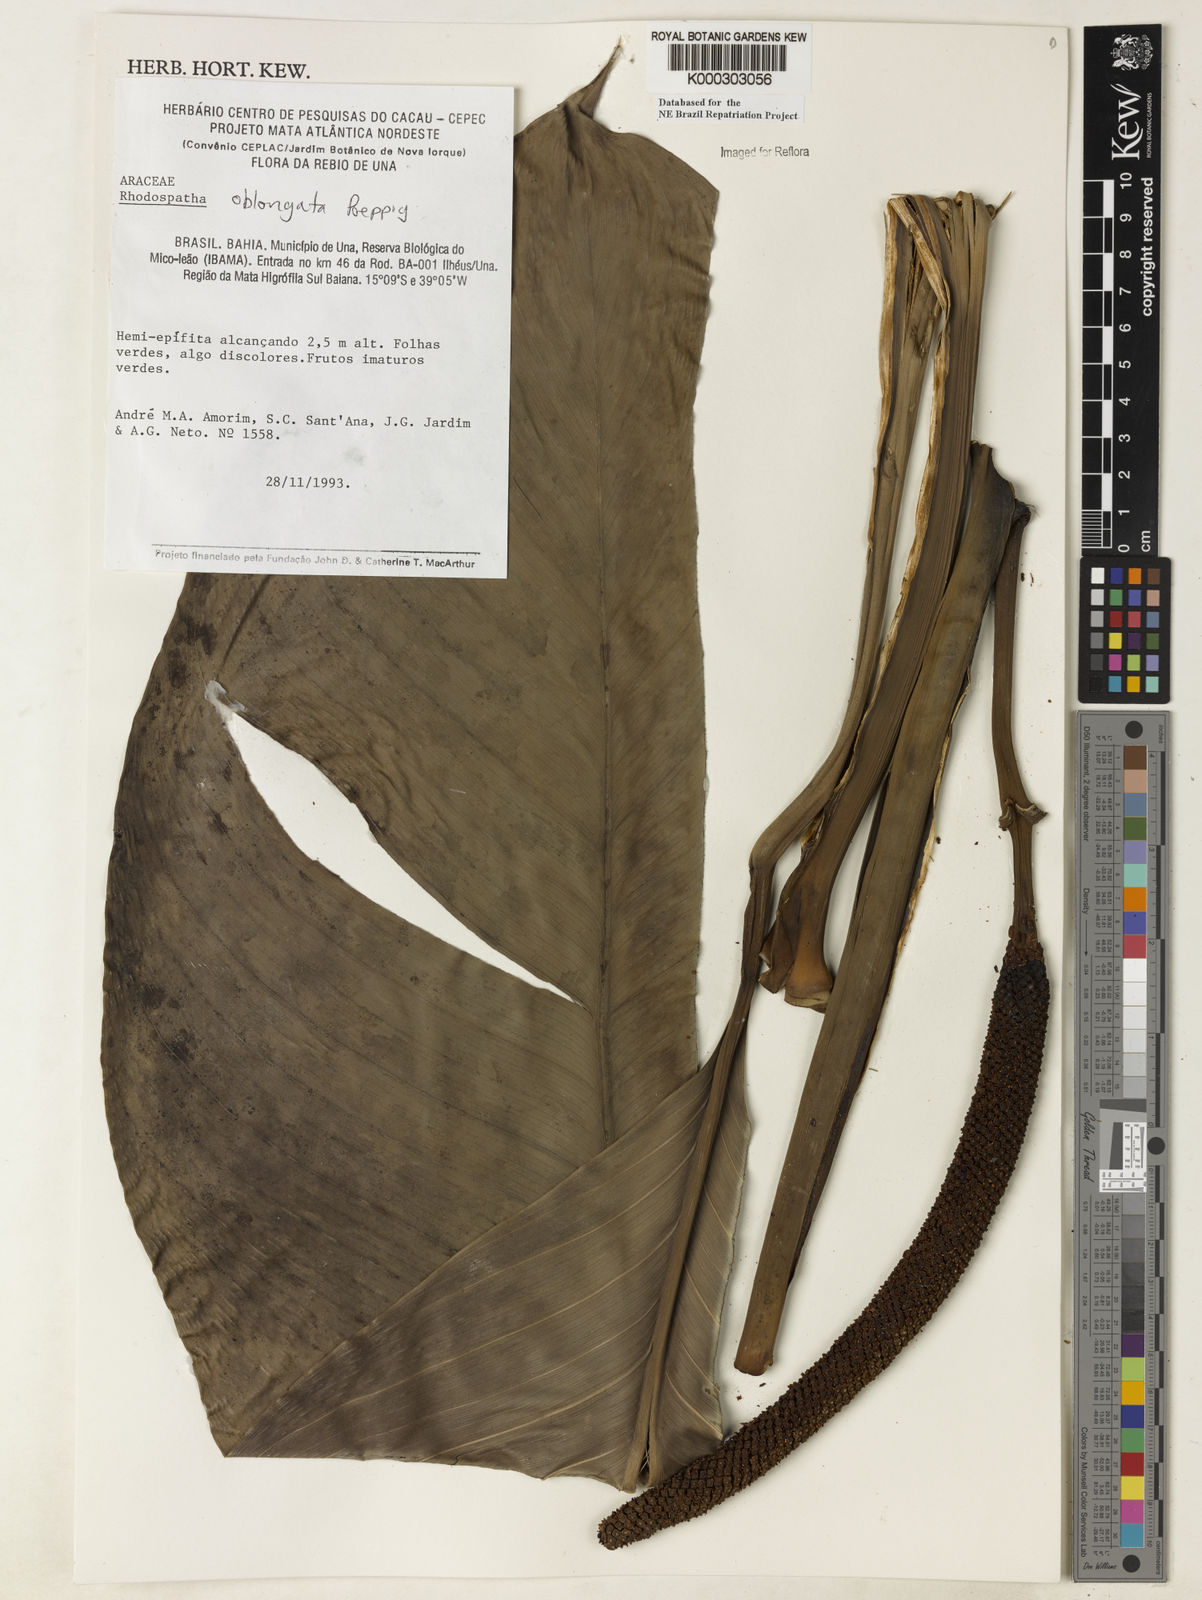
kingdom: Plantae
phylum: Tracheophyta
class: Liliopsida
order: Alismatales
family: Araceae
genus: Rhodospatha
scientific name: Rhodospatha oblongata
